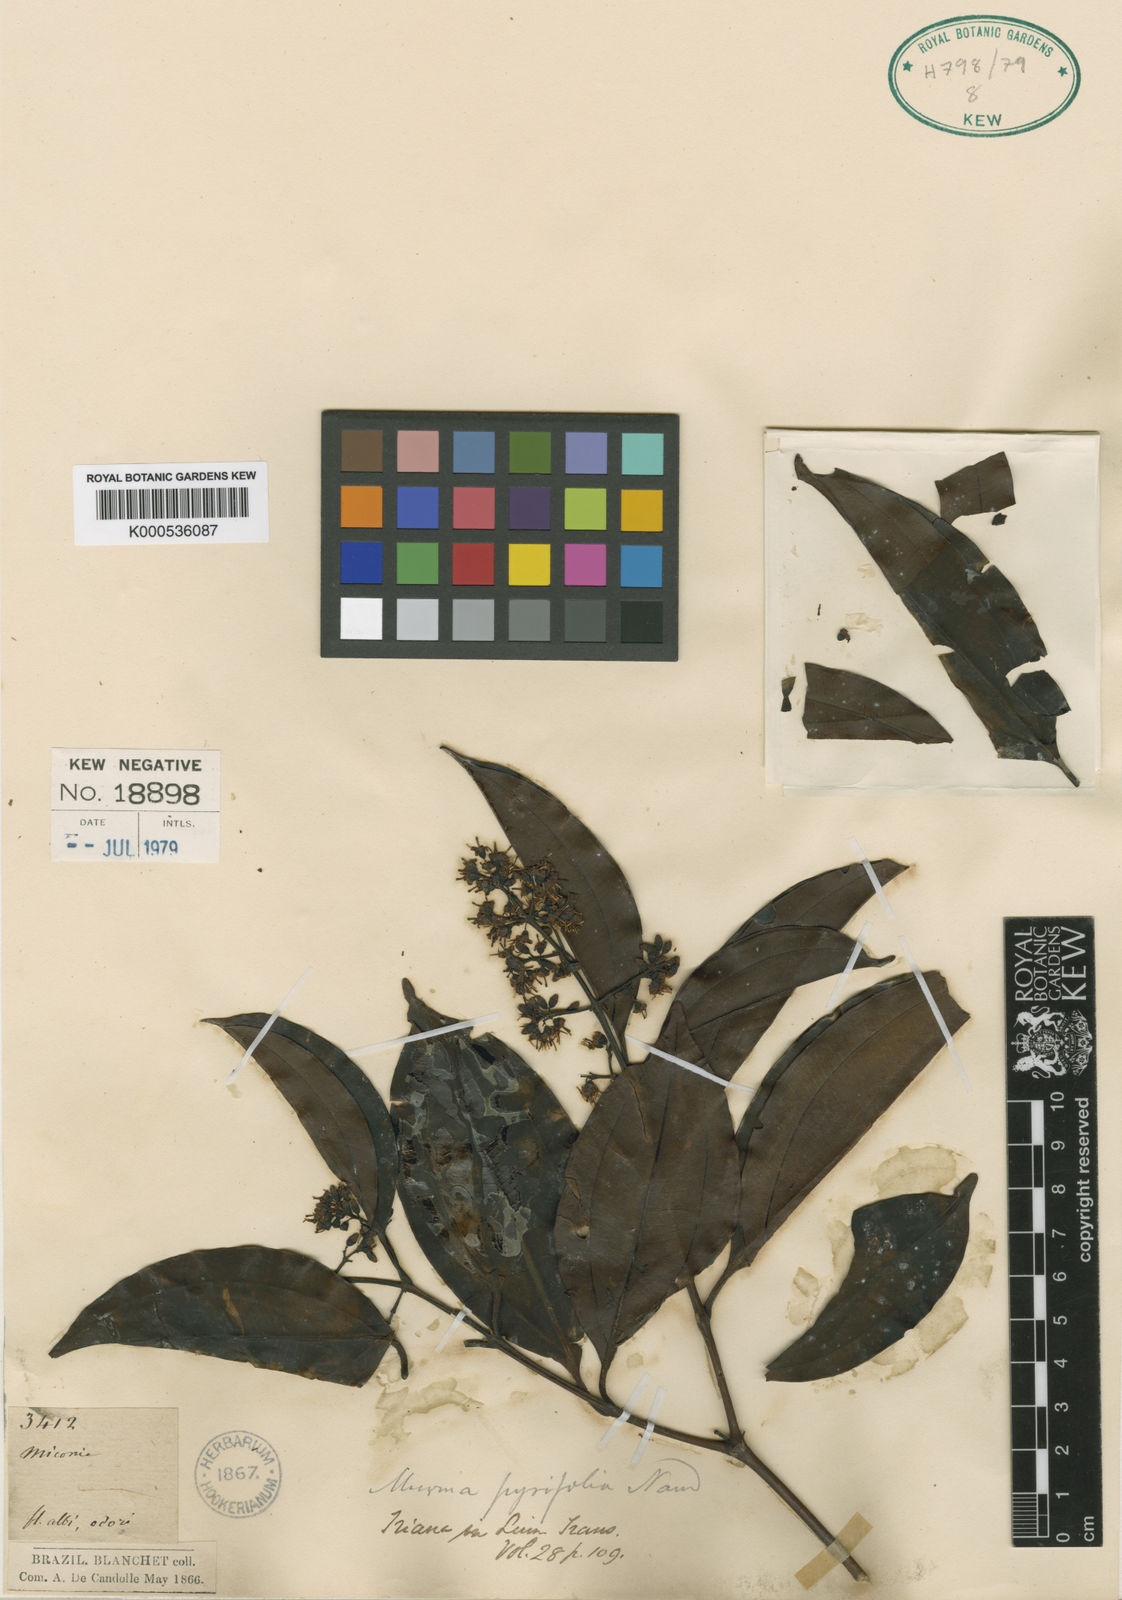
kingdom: Plantae
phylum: Tracheophyta
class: Magnoliopsida
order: Myrtales
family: Melastomataceae
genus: Miconia
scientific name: Miconia pyrifolia
